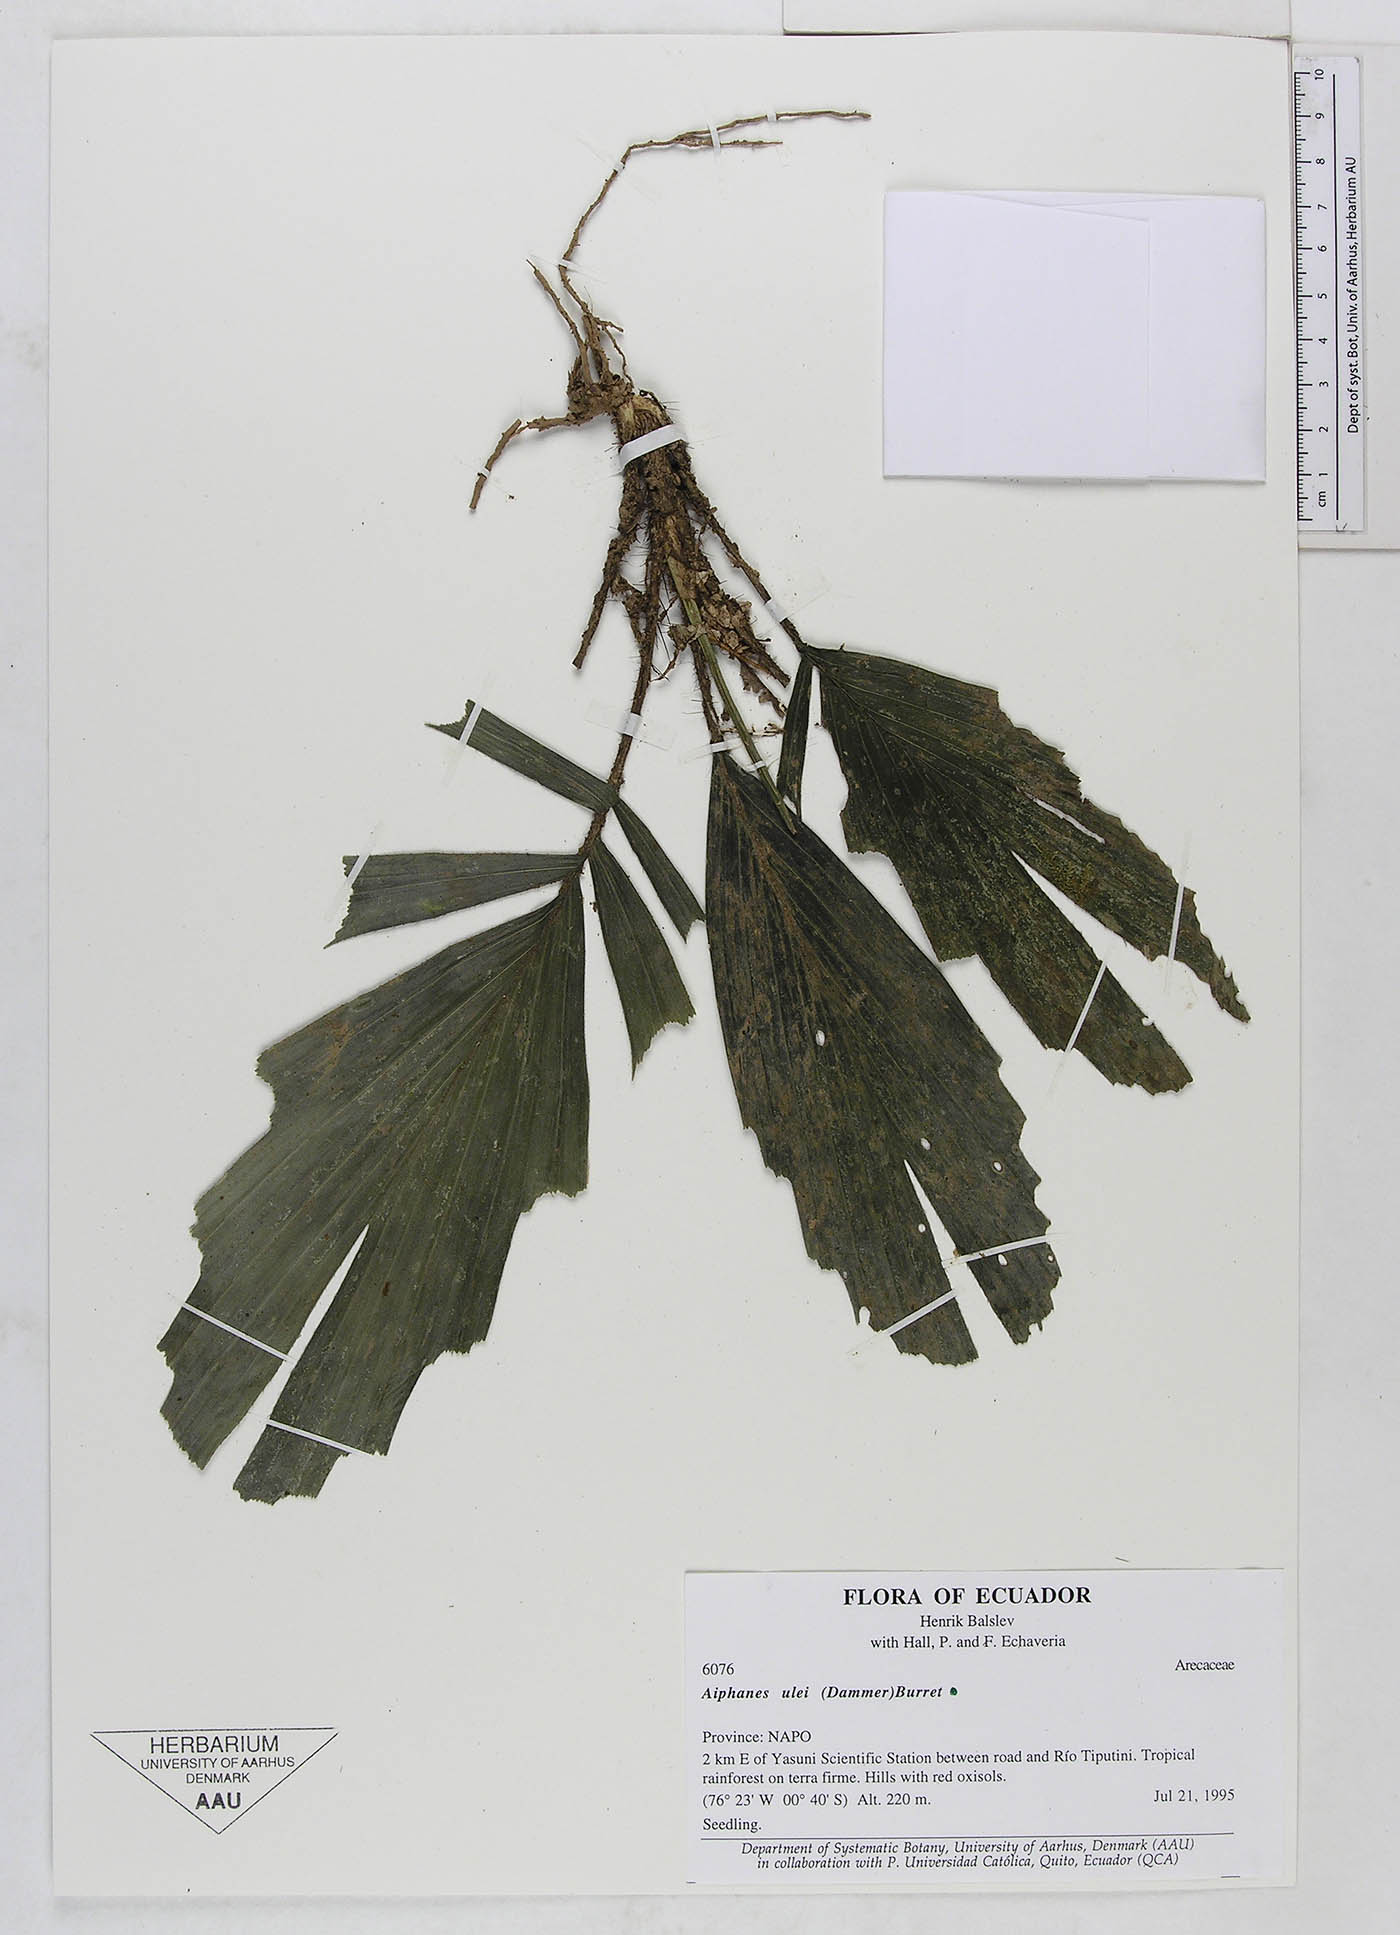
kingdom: Plantae
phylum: Tracheophyta
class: Liliopsida
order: Arecales
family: Arecaceae
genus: Aiphanes
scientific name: Aiphanes ulei
